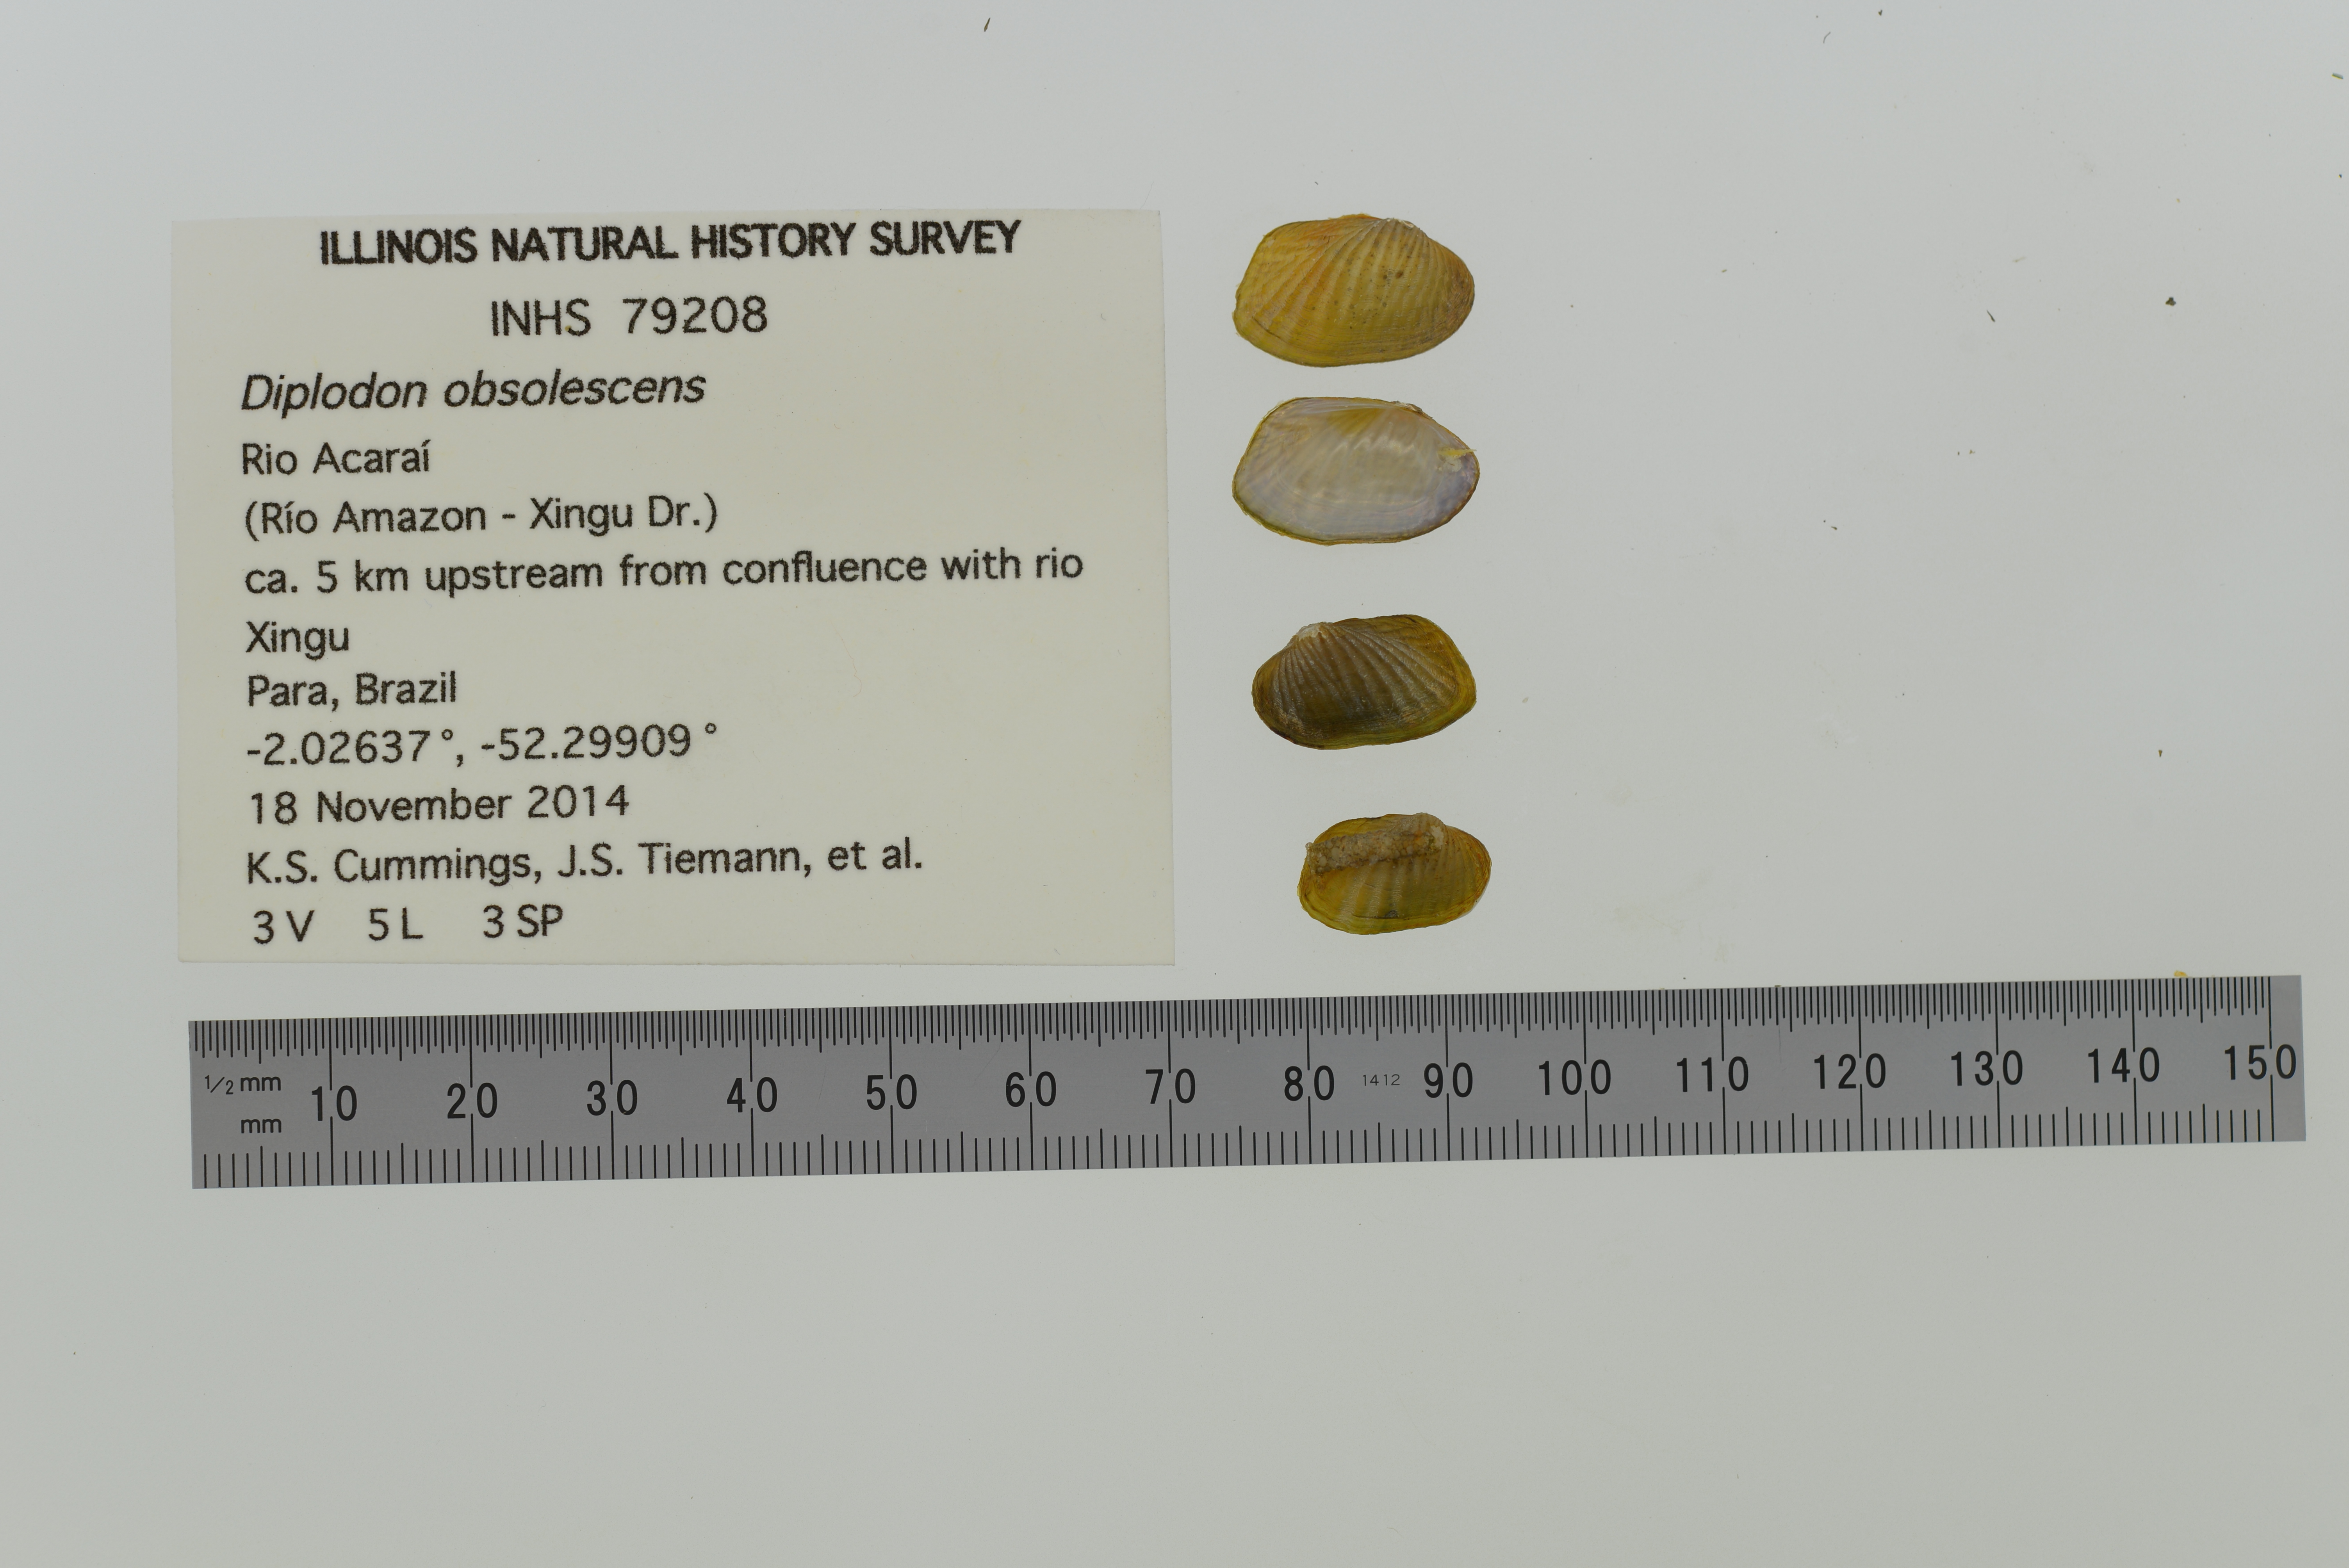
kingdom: Animalia
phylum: Mollusca
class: Bivalvia
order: Unionida
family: Hyriidae
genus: Diplodon
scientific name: Diplodon obsolescens
